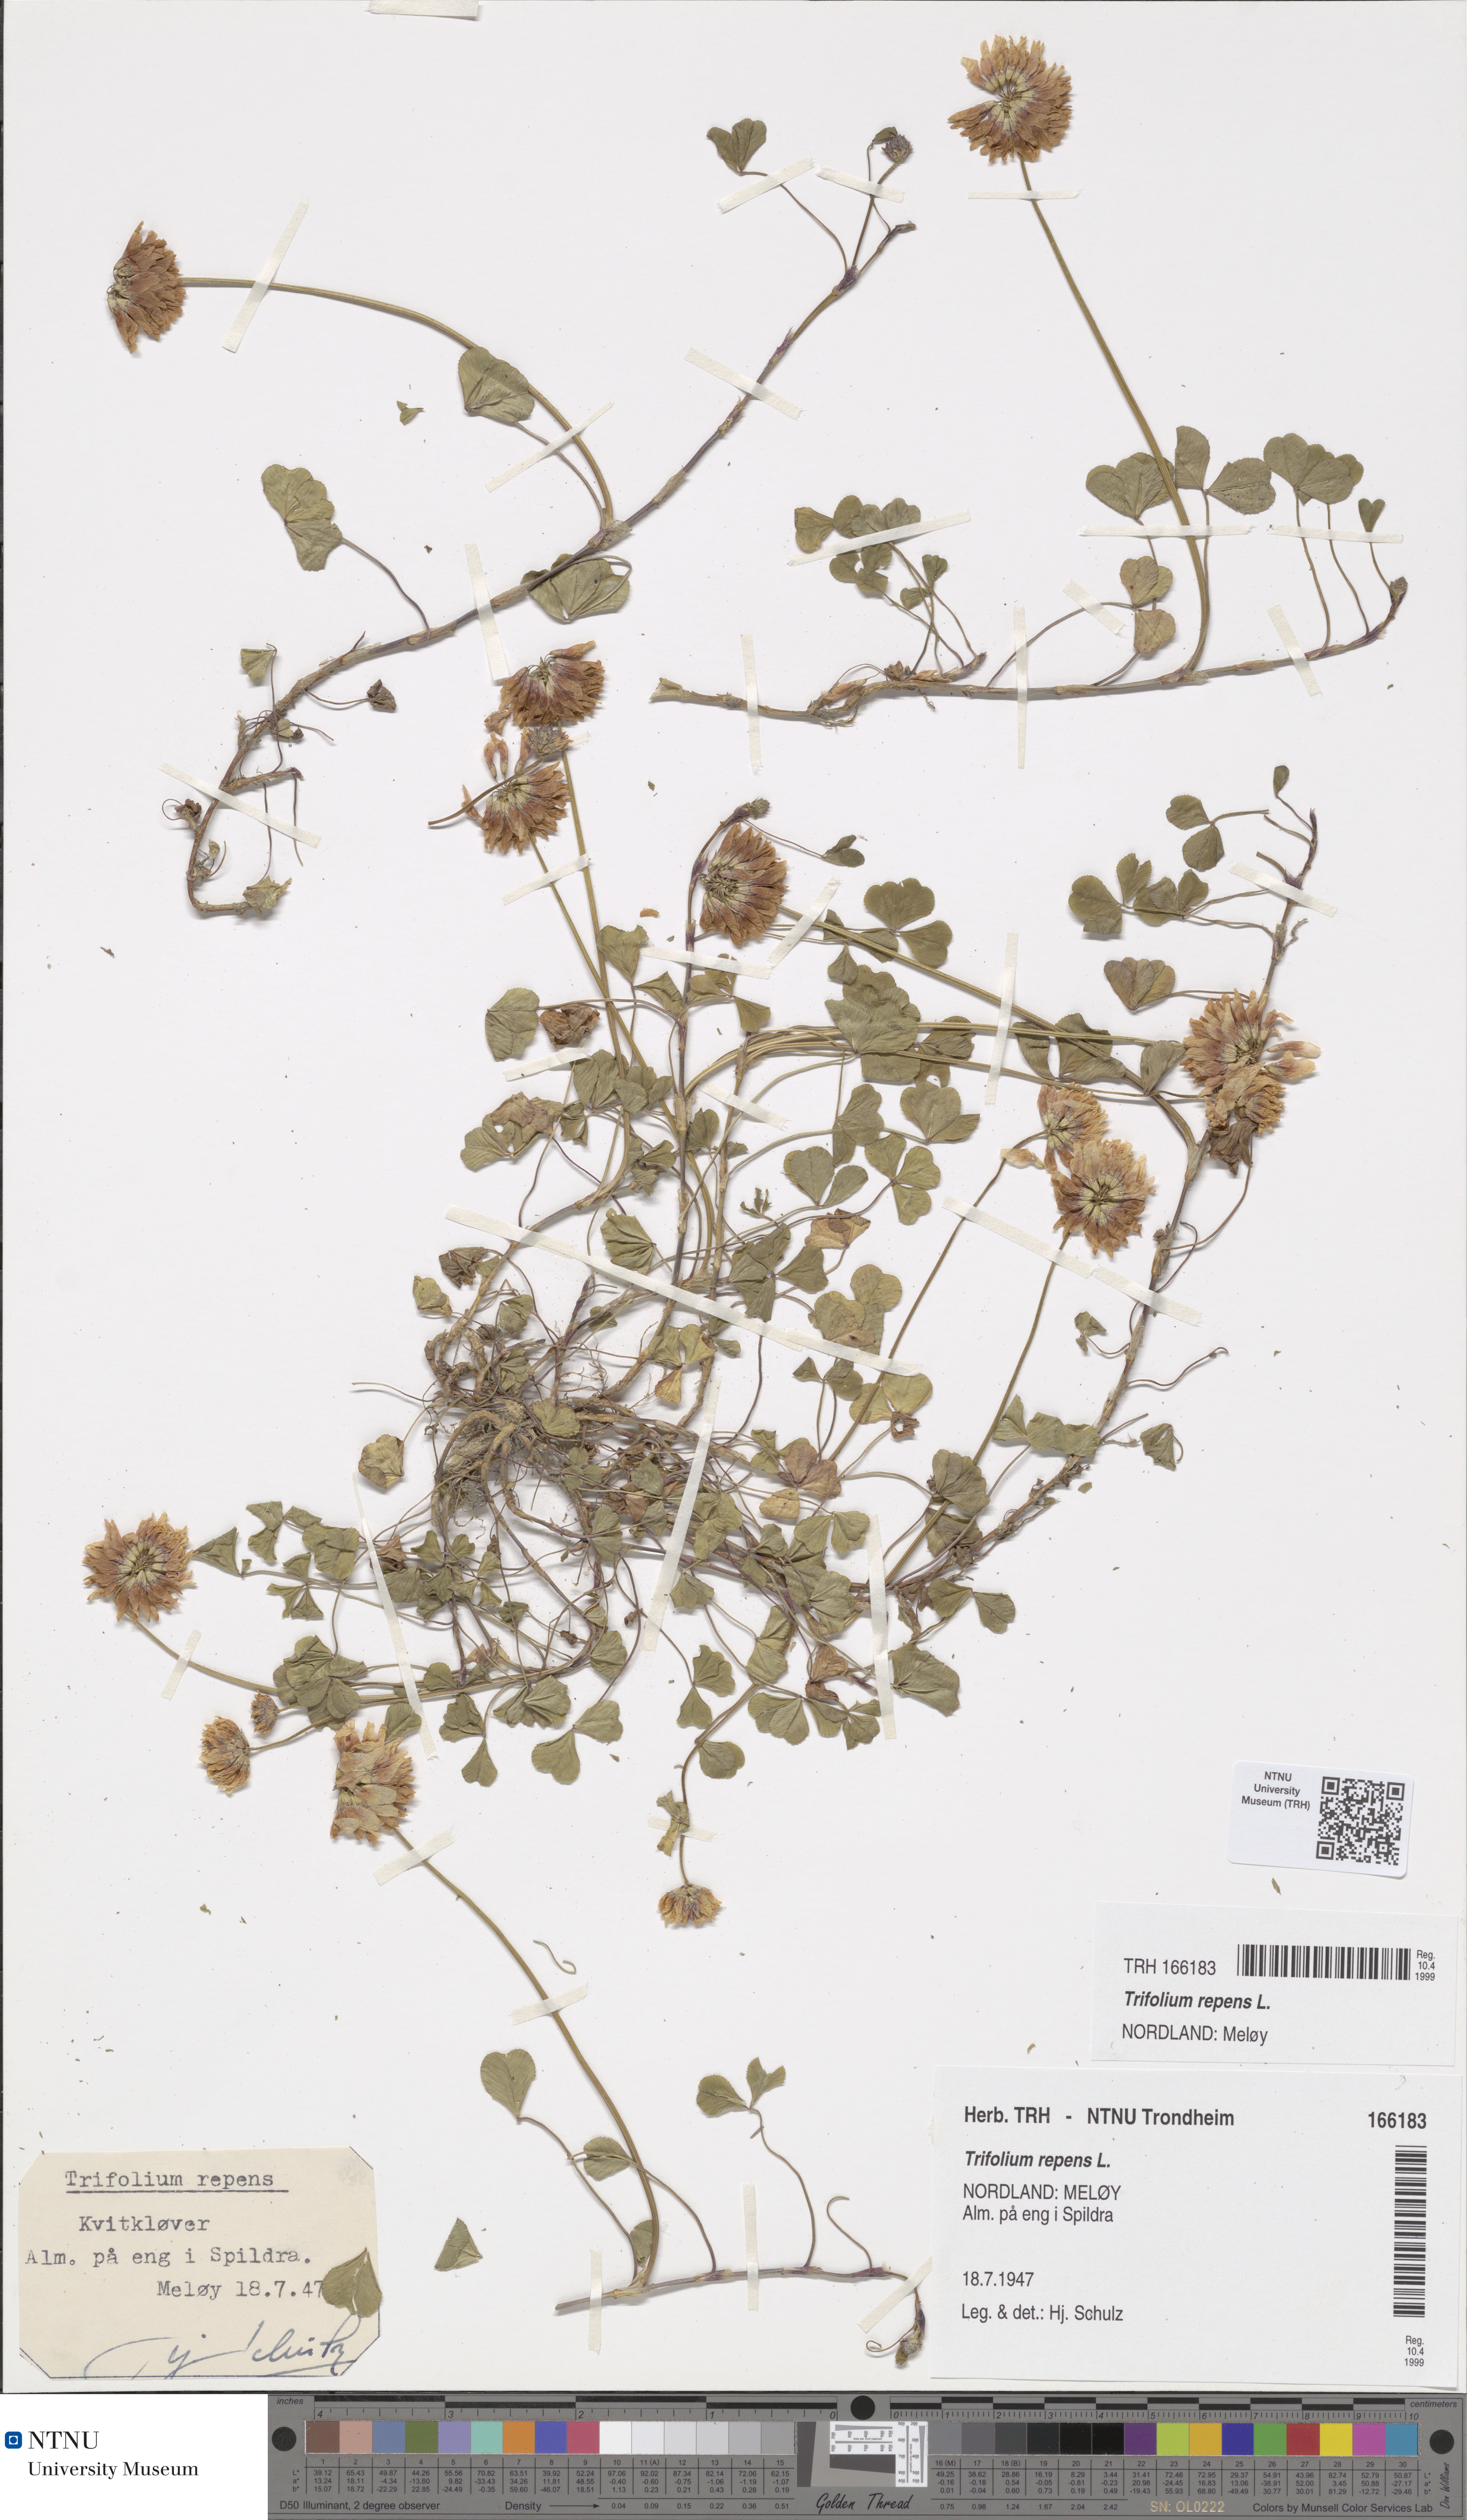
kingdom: Plantae
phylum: Tracheophyta
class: Magnoliopsida
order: Fabales
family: Fabaceae
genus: Trifolium
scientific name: Trifolium repens
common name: White clover
